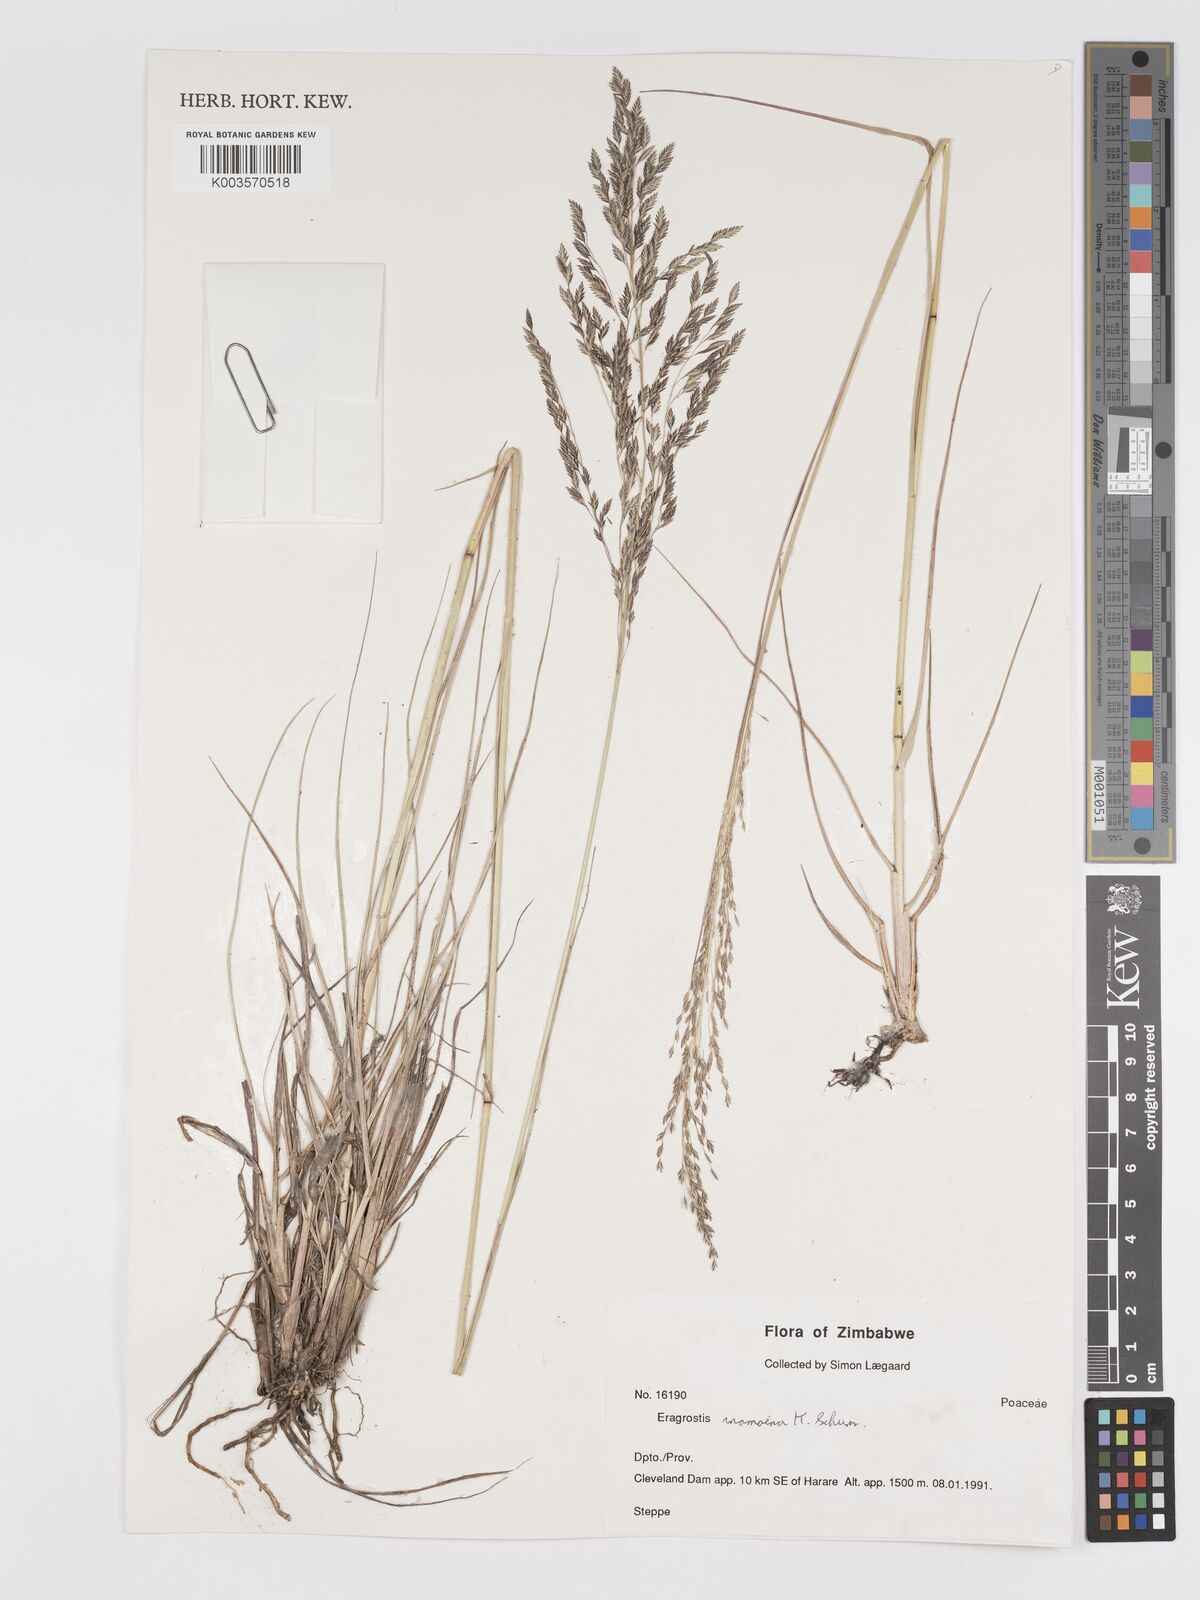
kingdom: Plantae
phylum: Tracheophyta
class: Liliopsida
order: Poales
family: Poaceae
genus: Eragrostis
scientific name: Eragrostis inamoena
